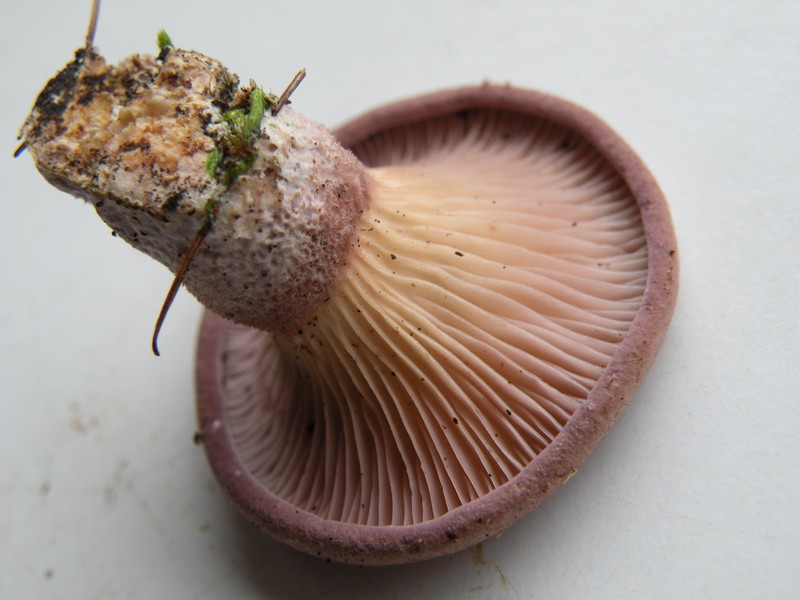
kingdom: Fungi
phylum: Basidiomycota
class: Agaricomycetes
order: Polyporales
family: Panaceae
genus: Panus
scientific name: Panus conchatus
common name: filtstokket læderhat
